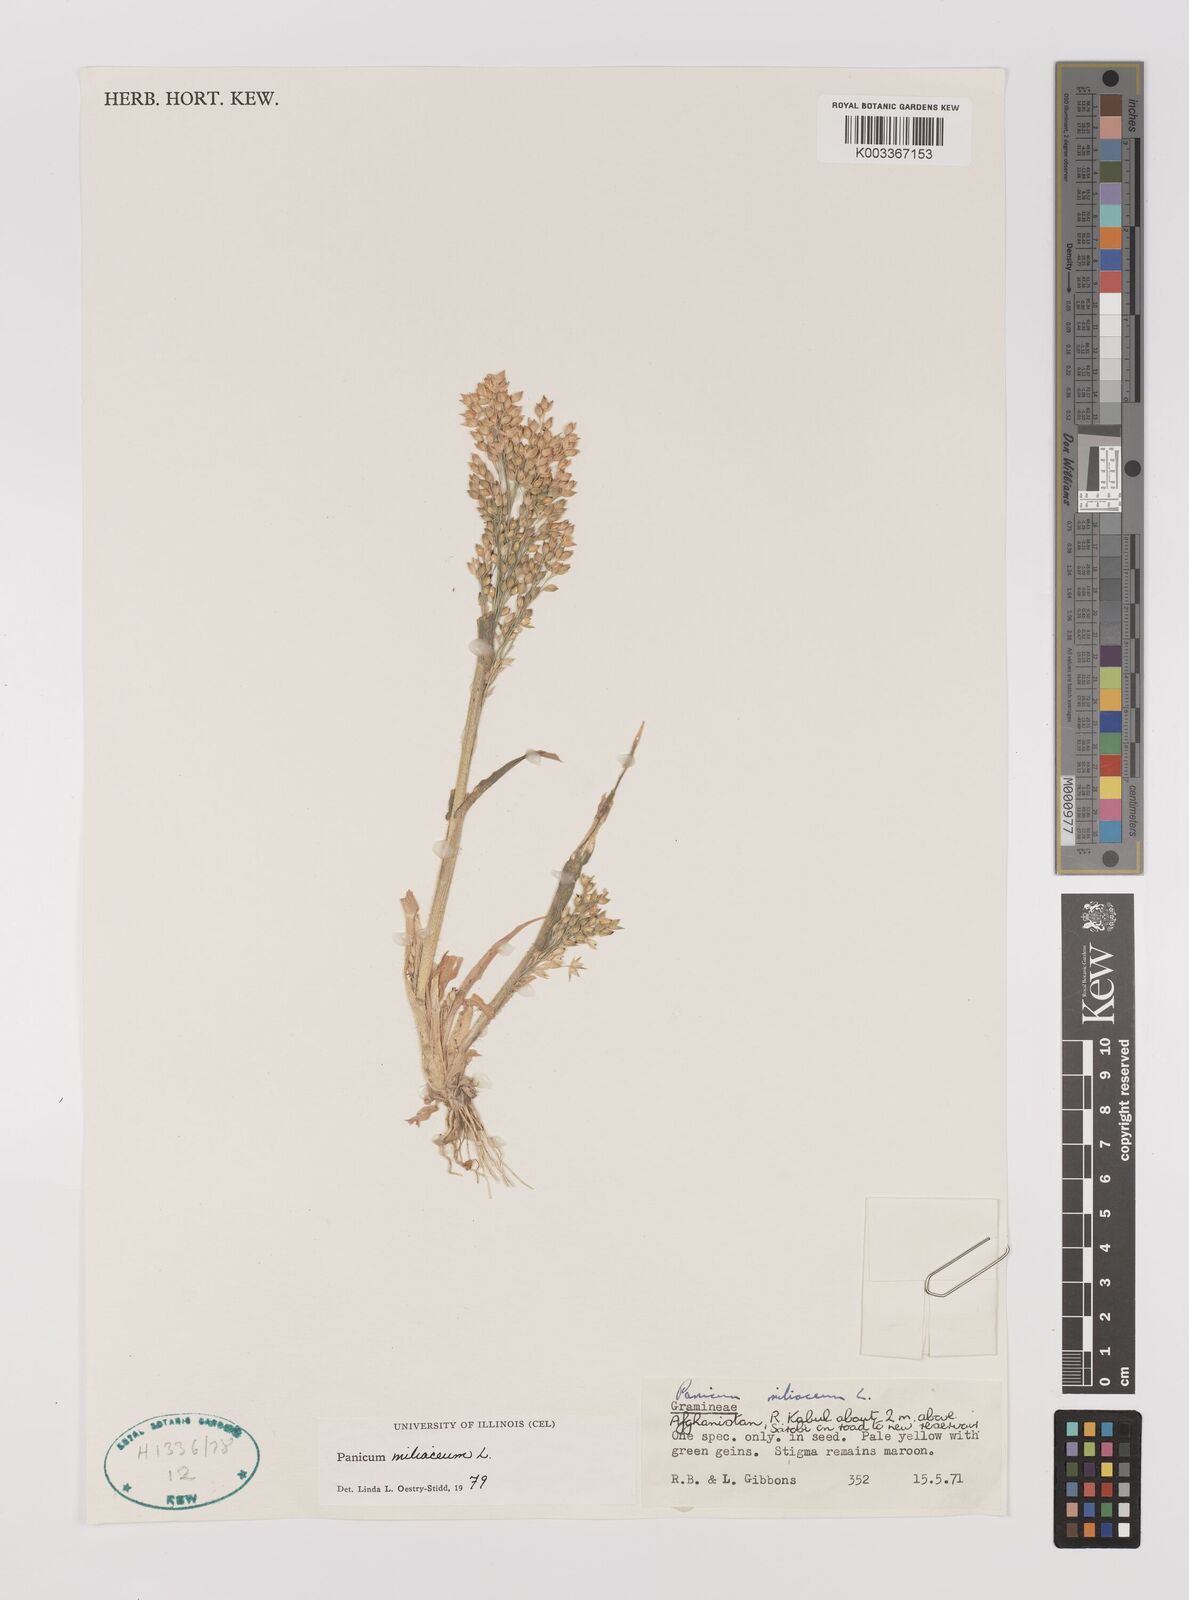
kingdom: Plantae
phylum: Tracheophyta
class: Liliopsida
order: Poales
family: Poaceae
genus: Panicum
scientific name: Panicum miliaceum
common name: Common millet
